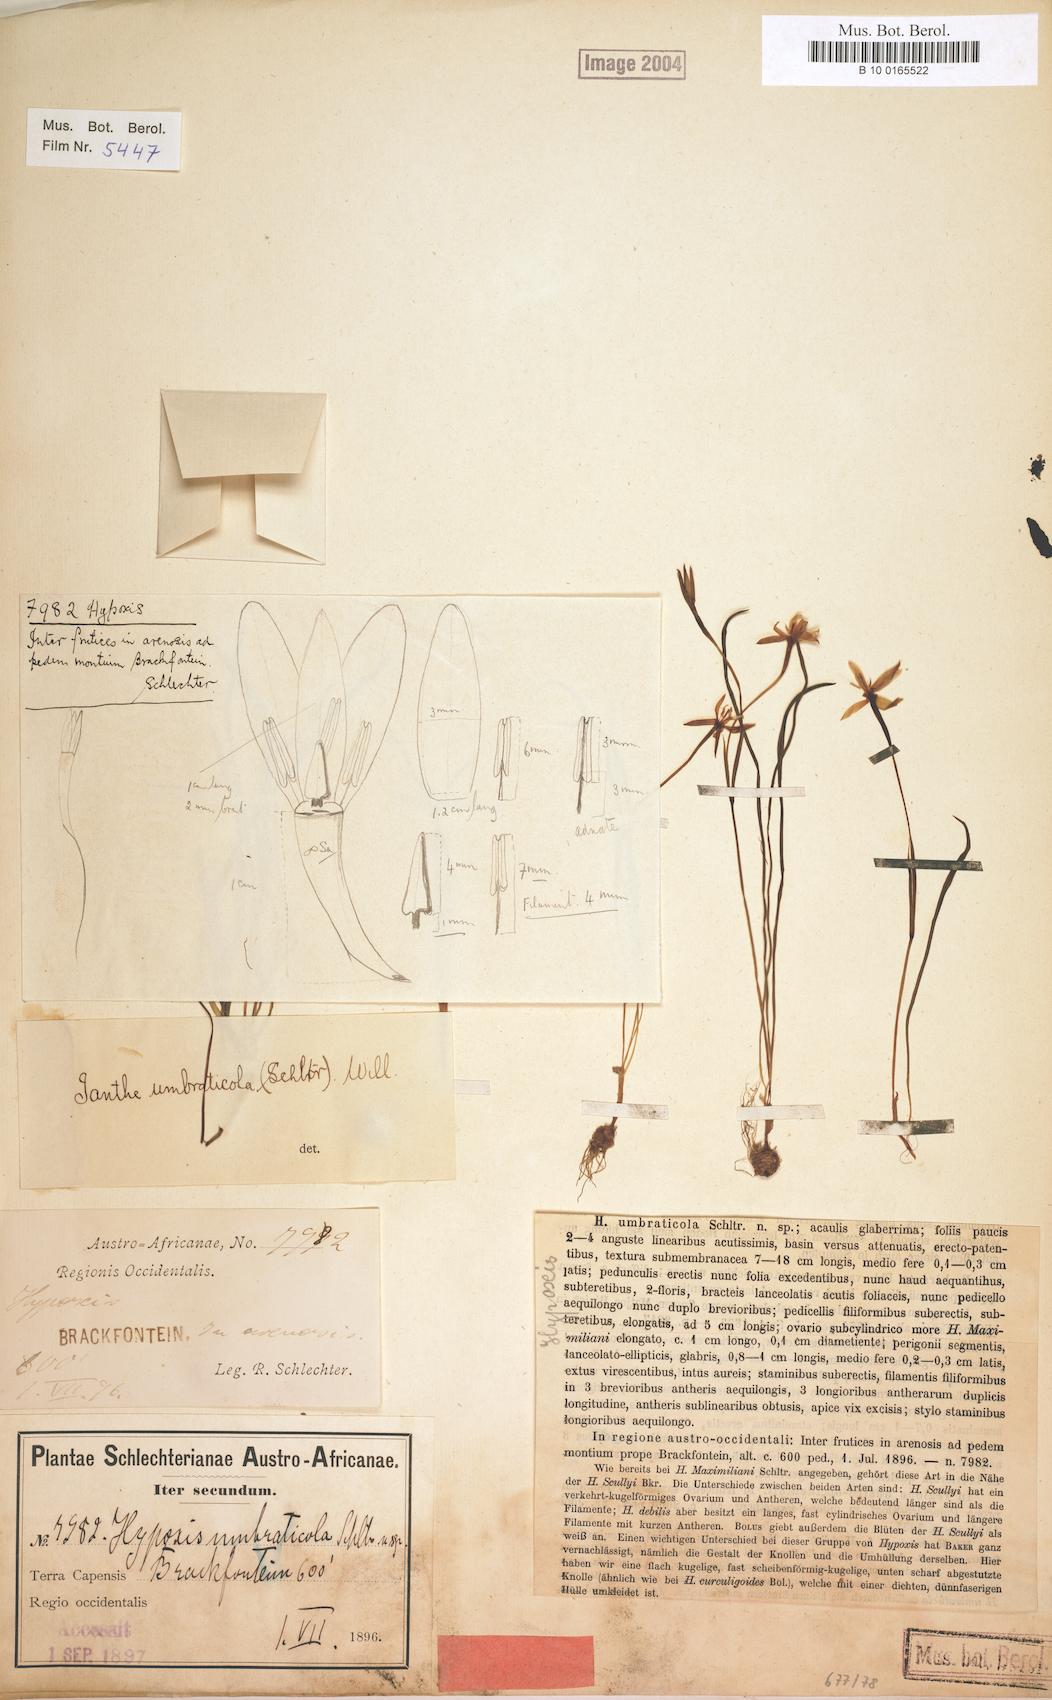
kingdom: Plantae
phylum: Tracheophyta
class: Liliopsida
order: Asparagales
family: Hypoxidaceae
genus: Pauridia
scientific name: Pauridia umbraticola
